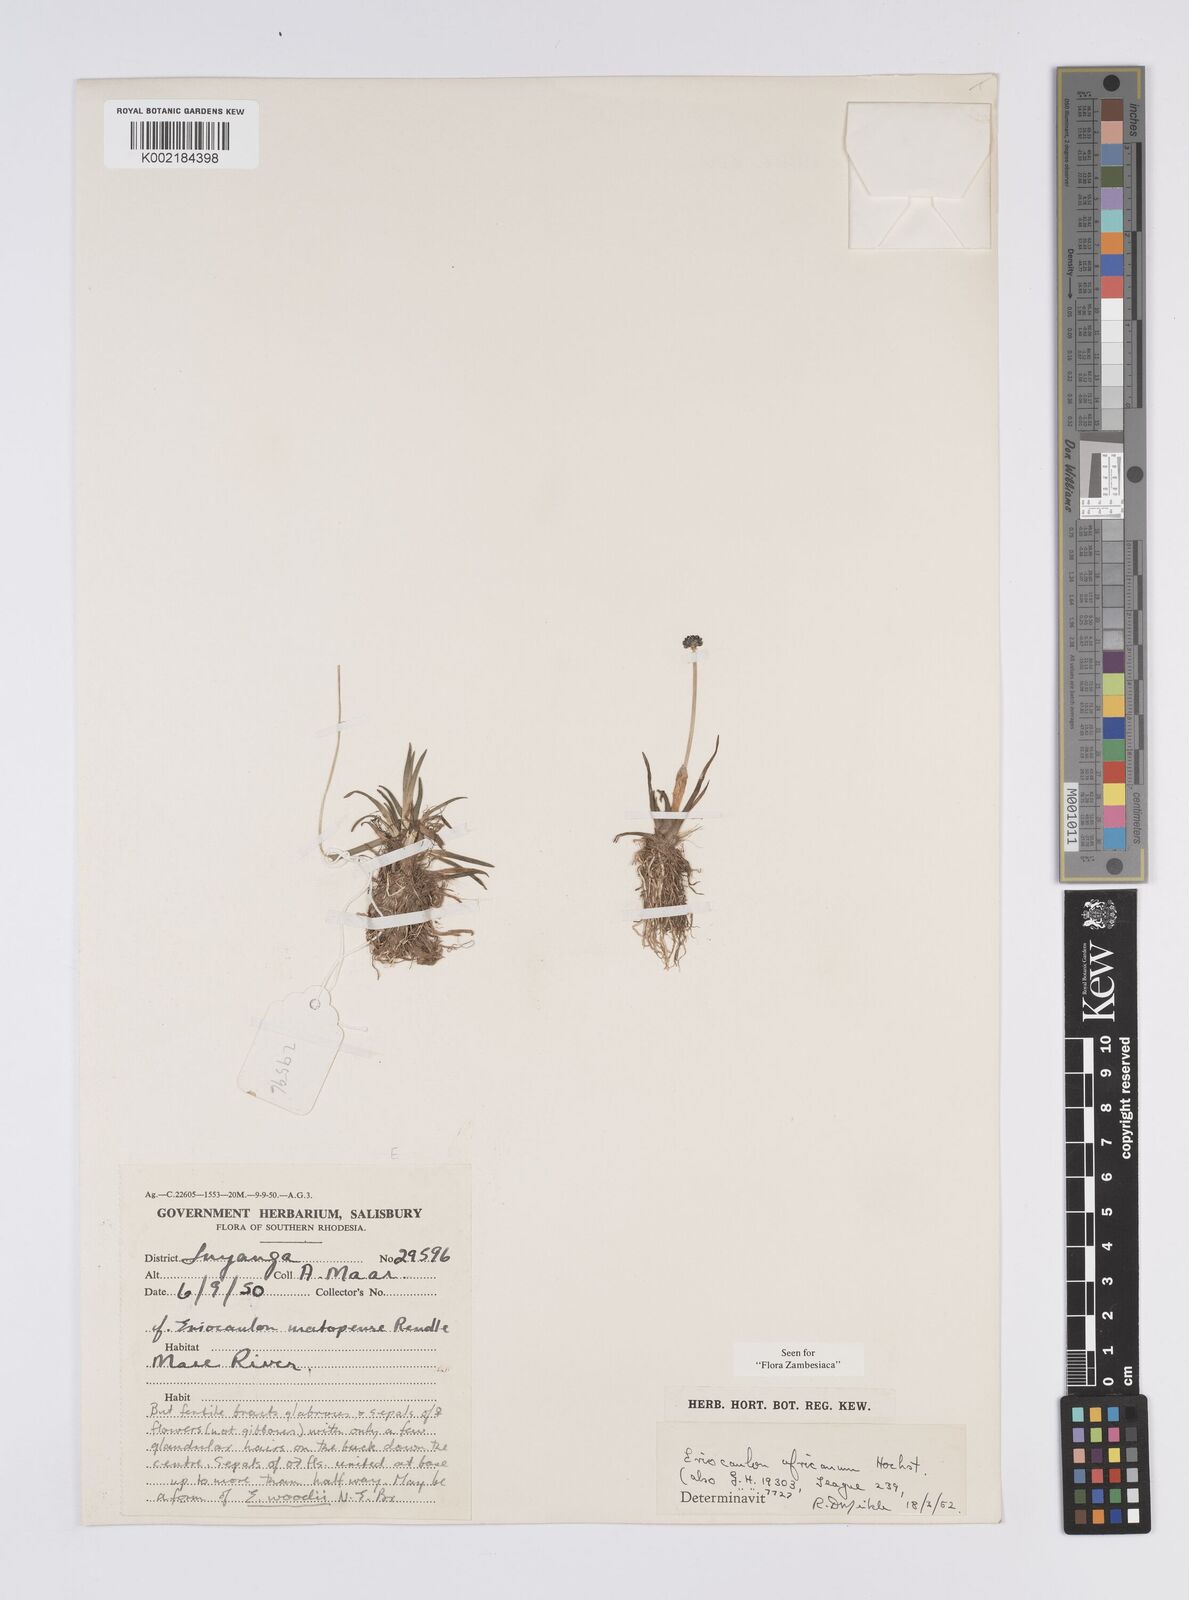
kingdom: Plantae
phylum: Tracheophyta
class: Liliopsida
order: Poales
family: Eriocaulaceae
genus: Eriocaulon
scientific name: Eriocaulon africanum
